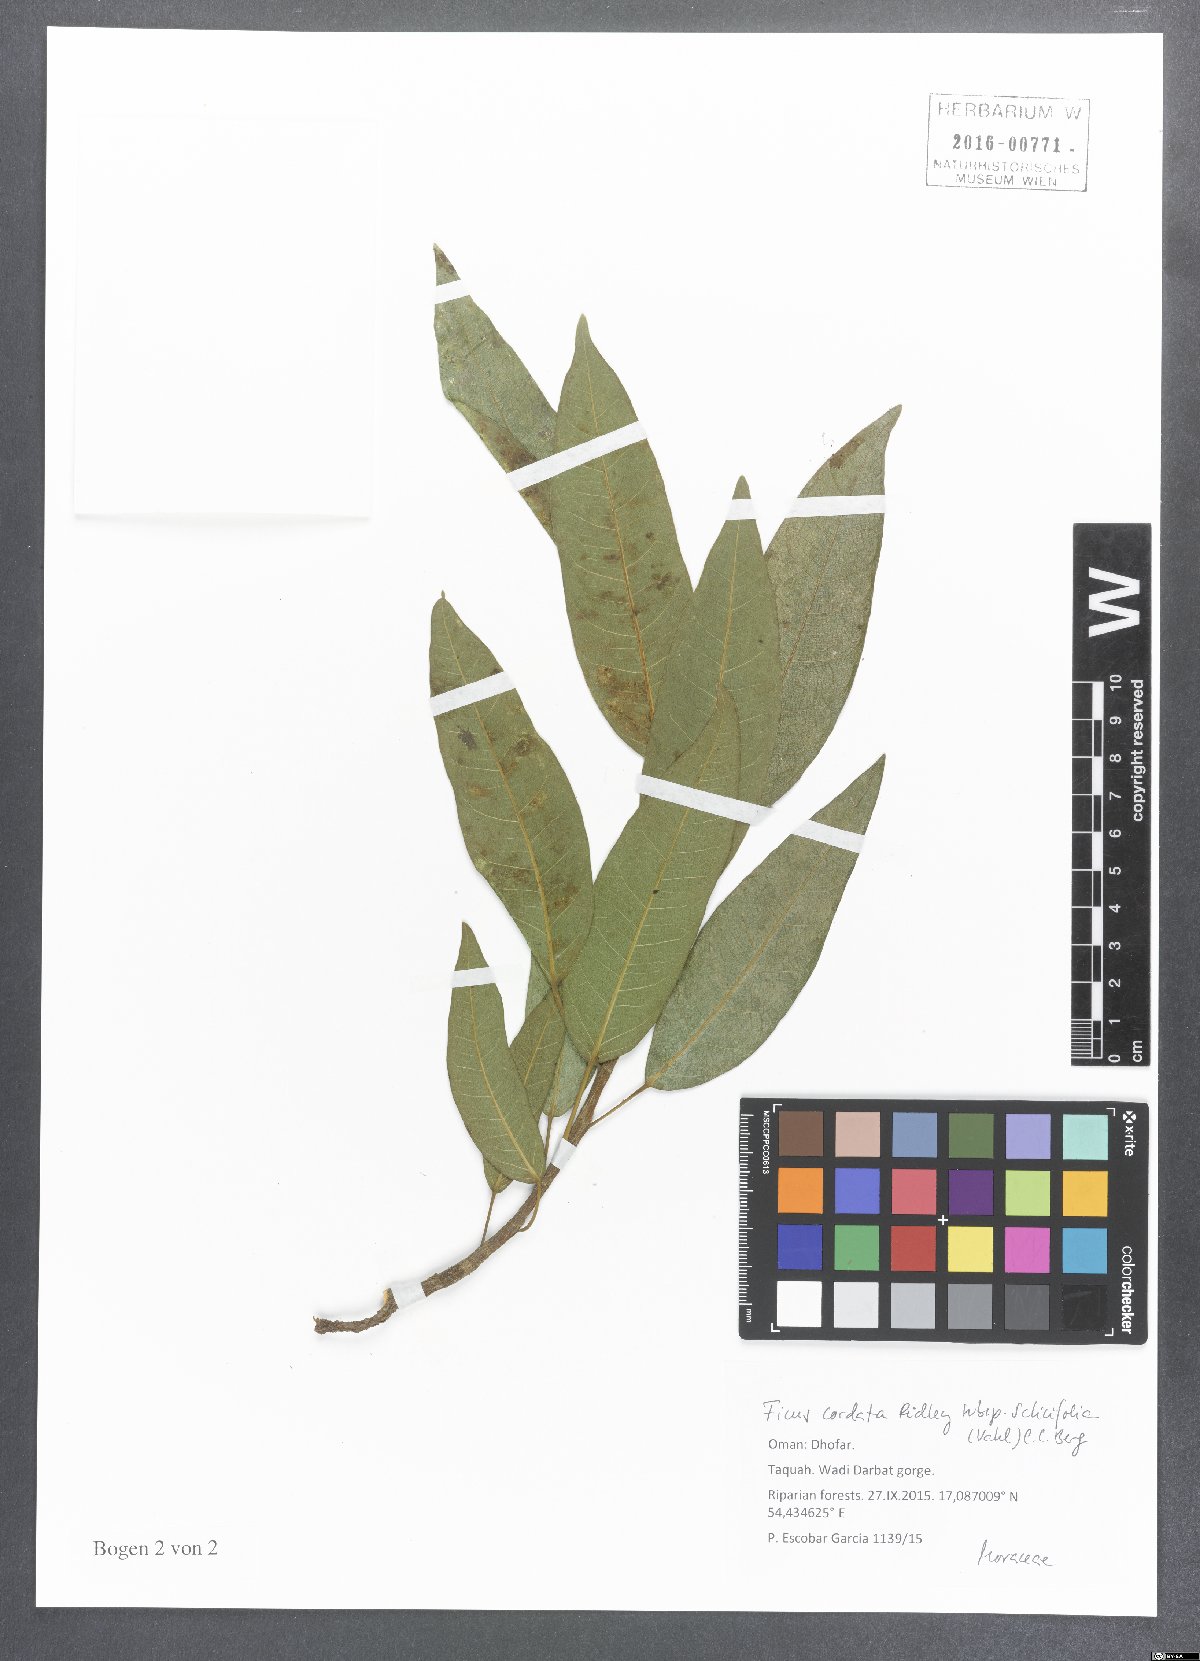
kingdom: Plantae
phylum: Tracheophyta
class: Magnoliopsida
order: Rosales
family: Moraceae
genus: Ficus
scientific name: Ficus cordata
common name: Namaqua rock fig
